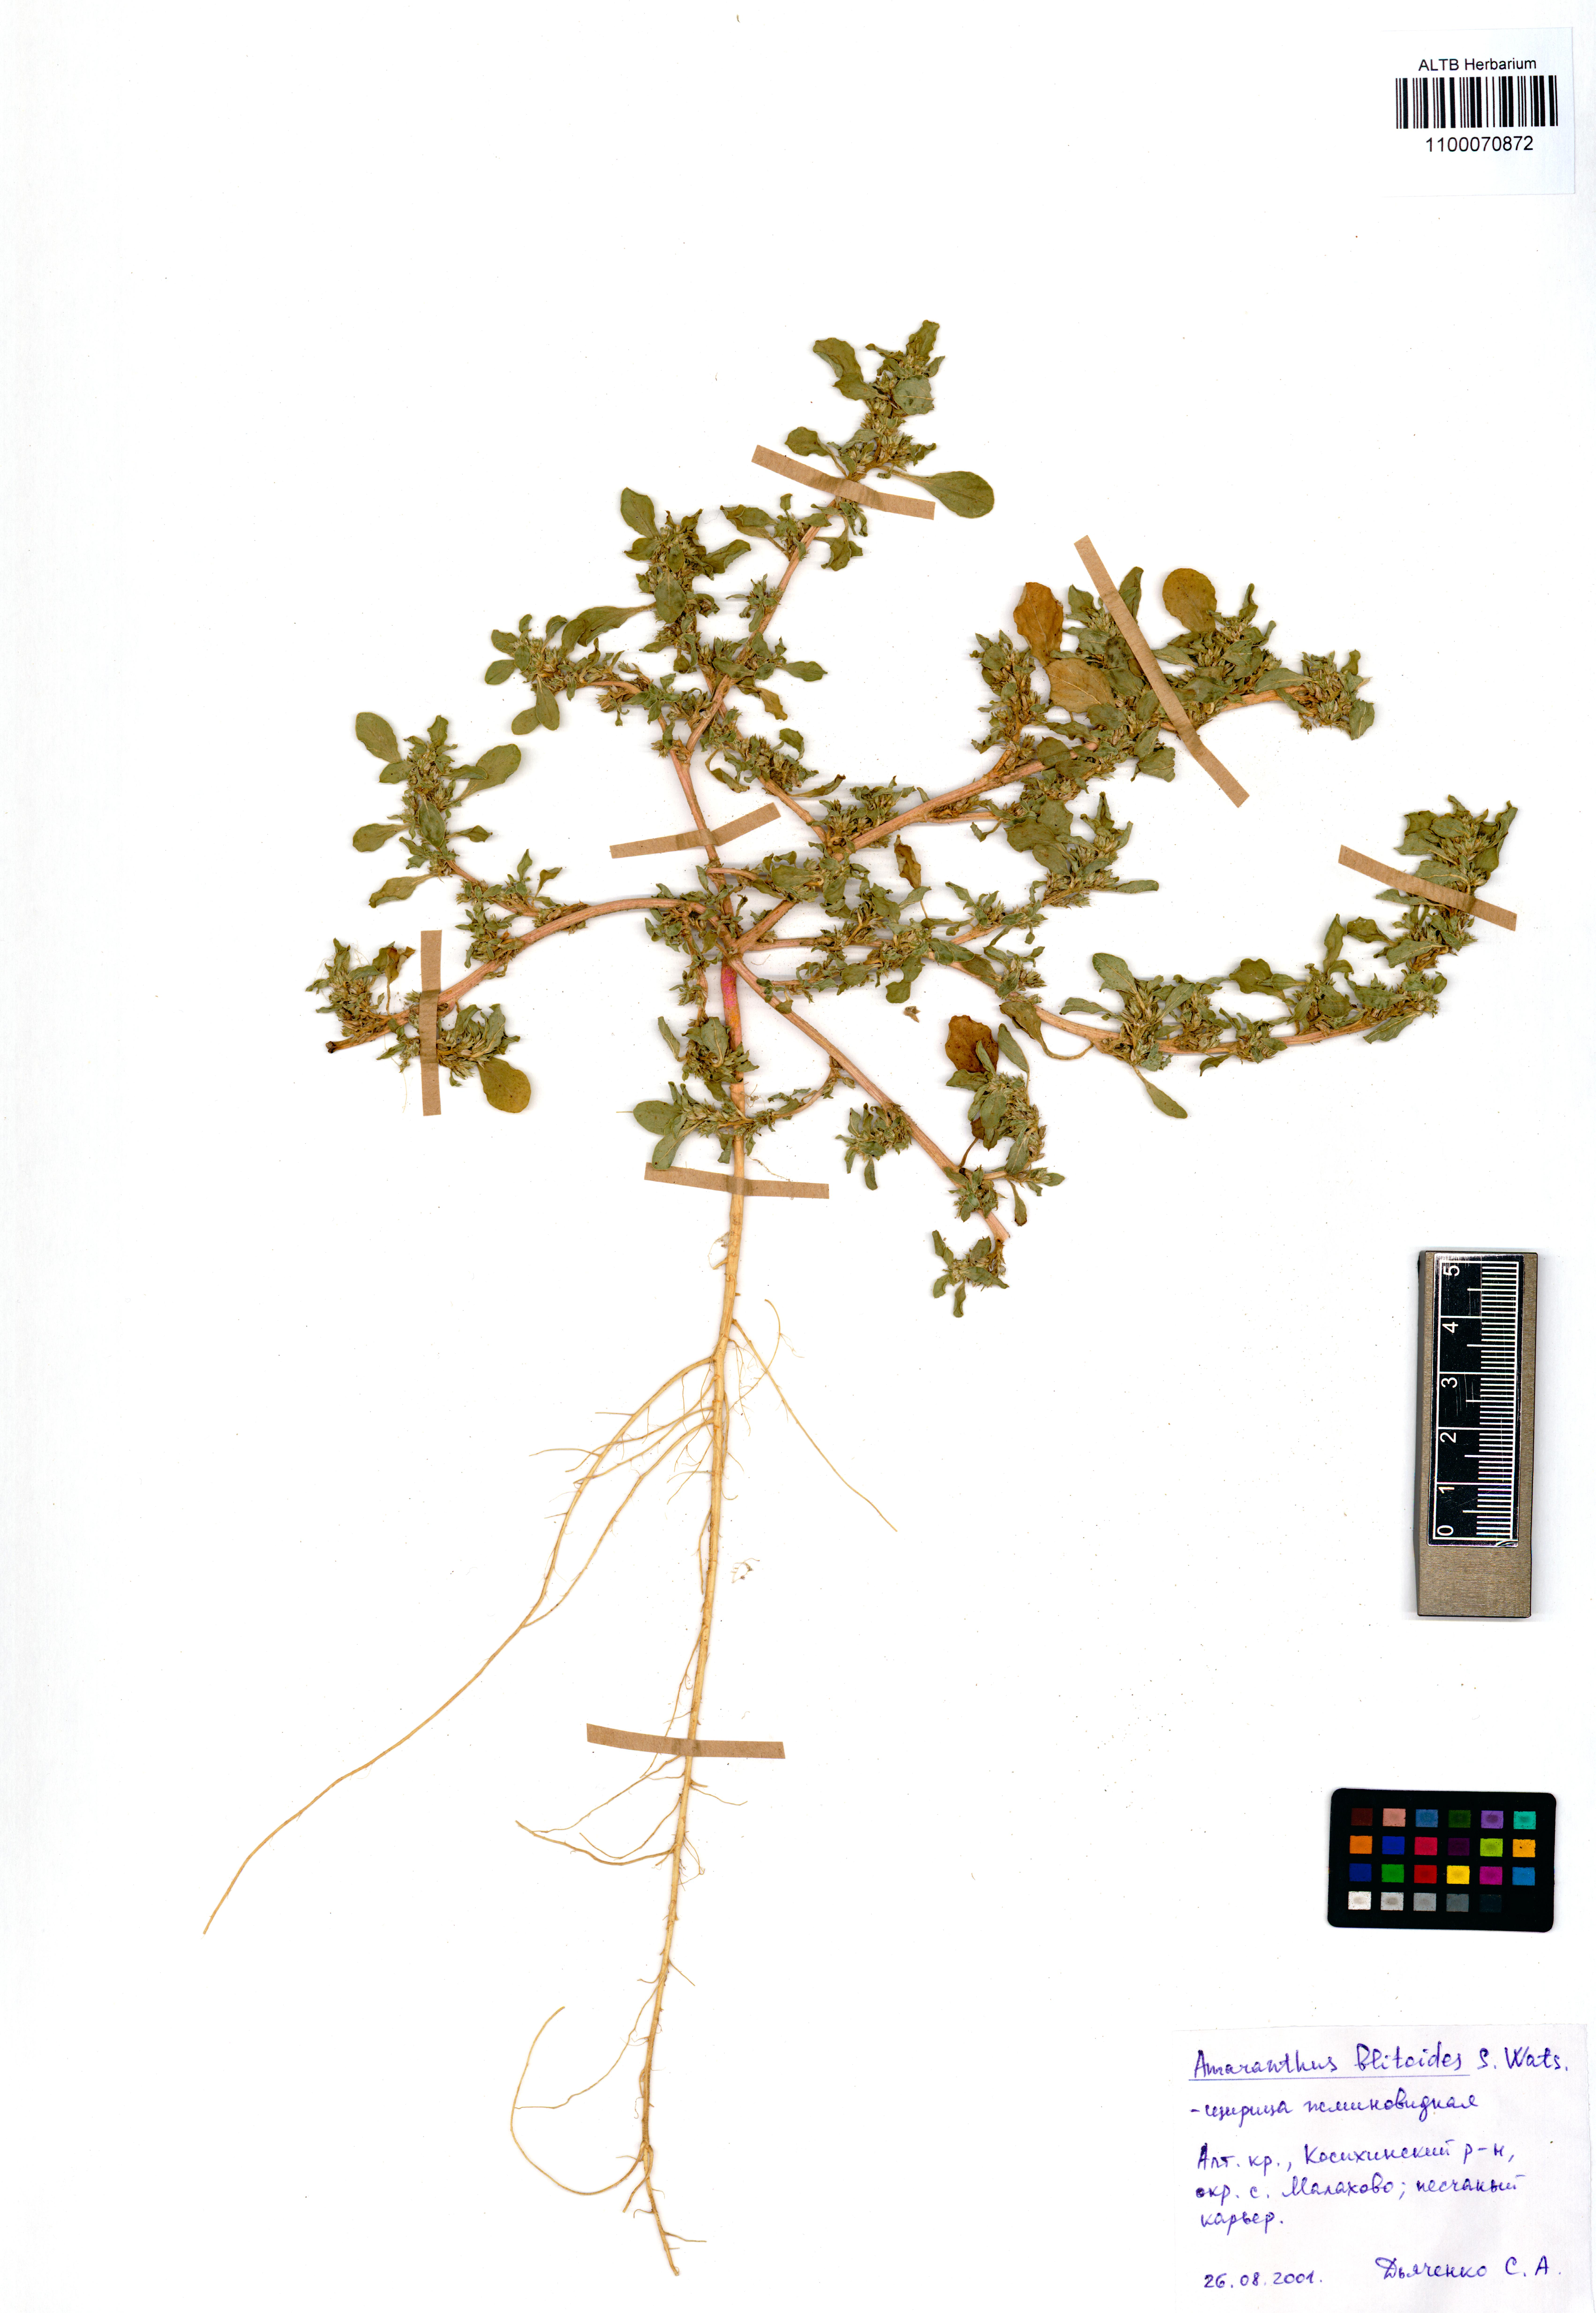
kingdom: Plantae
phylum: Tracheophyta
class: Magnoliopsida
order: Caryophyllales
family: Amaranthaceae
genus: Amaranthus
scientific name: Amaranthus blitoides
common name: Prostrate pigweed
